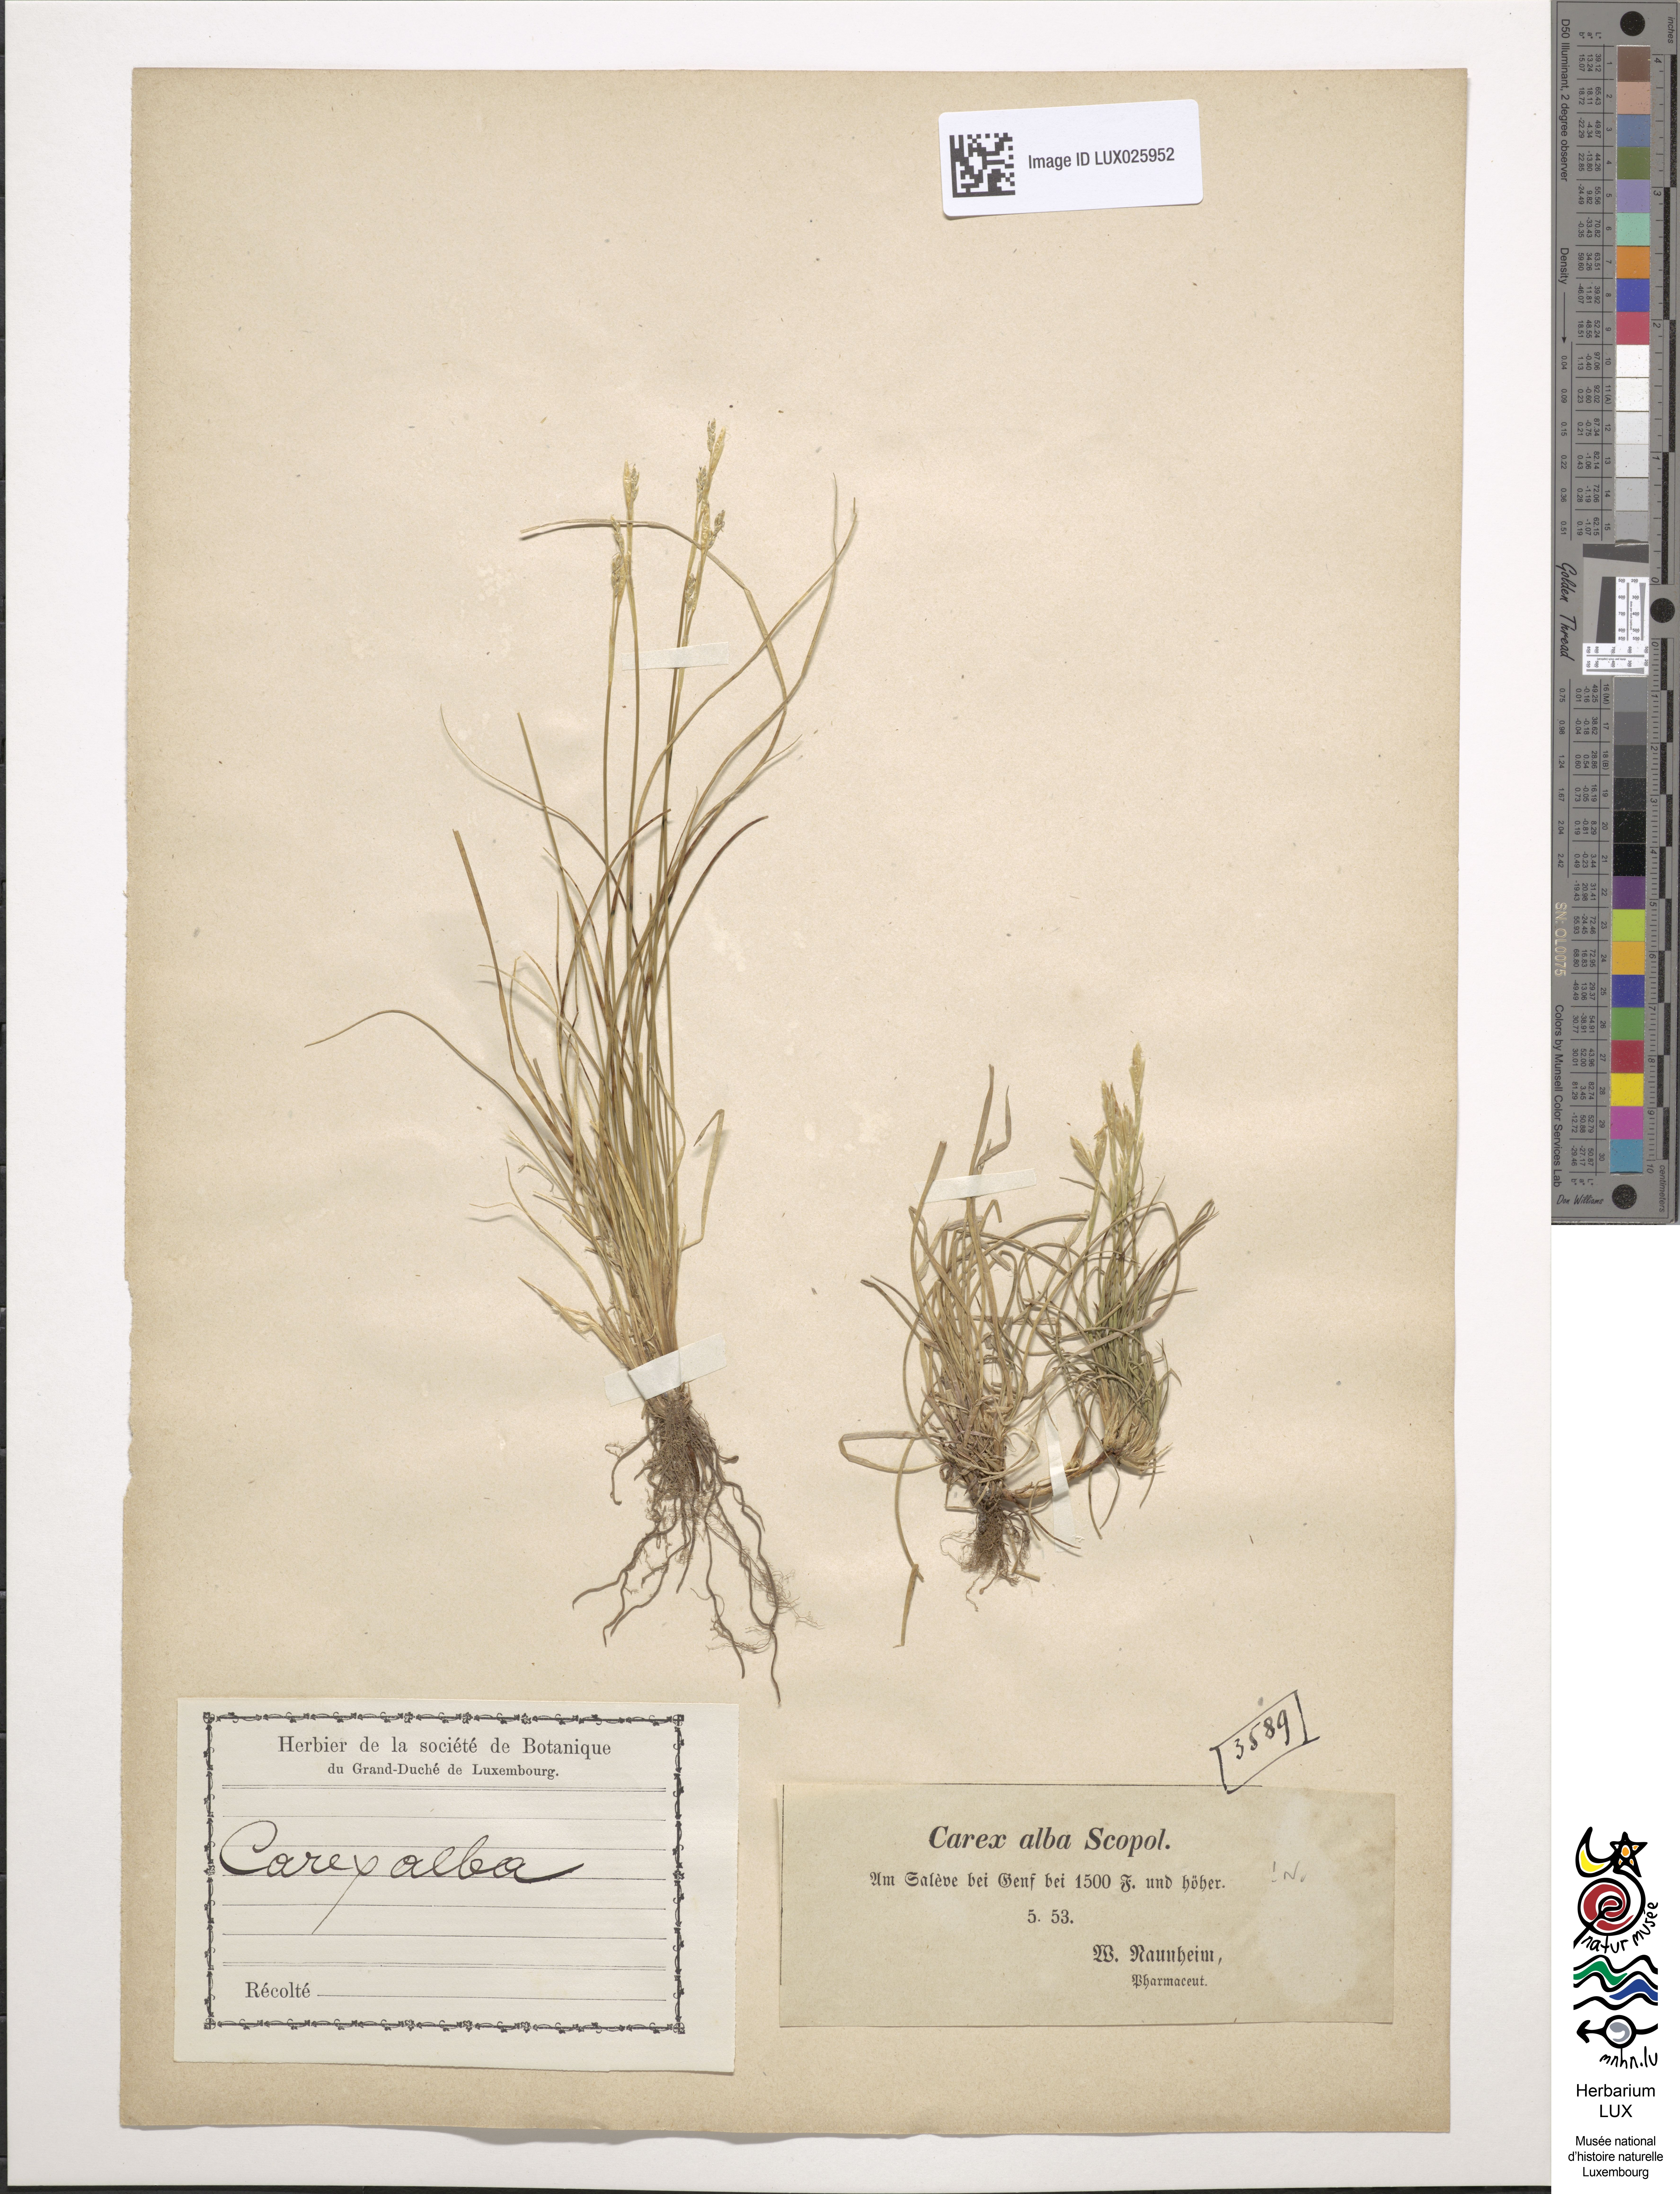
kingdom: Plantae
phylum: Tracheophyta
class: Liliopsida
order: Poales
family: Cyperaceae
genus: Carex
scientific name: Carex alba
